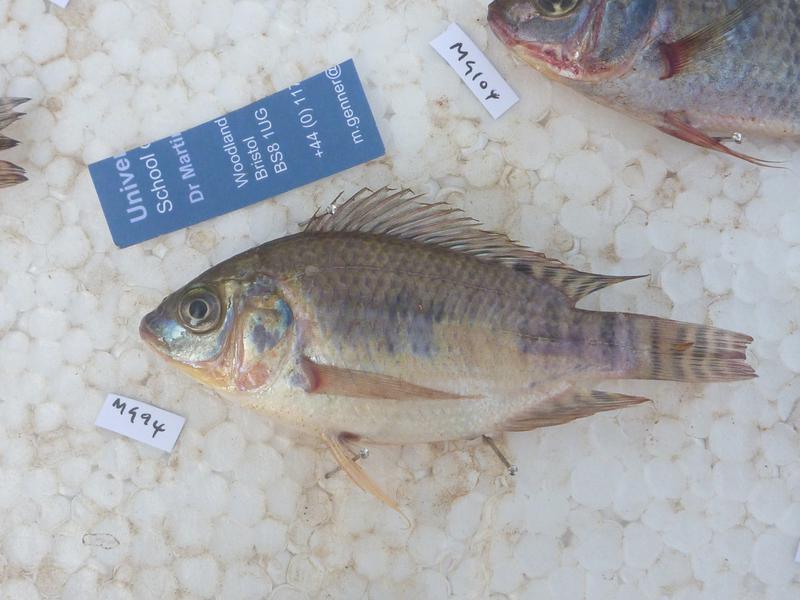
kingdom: Animalia
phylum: Chordata
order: Perciformes
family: Cichlidae
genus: Oreochromis
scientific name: Oreochromis niloticus
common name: Nile tilapia
